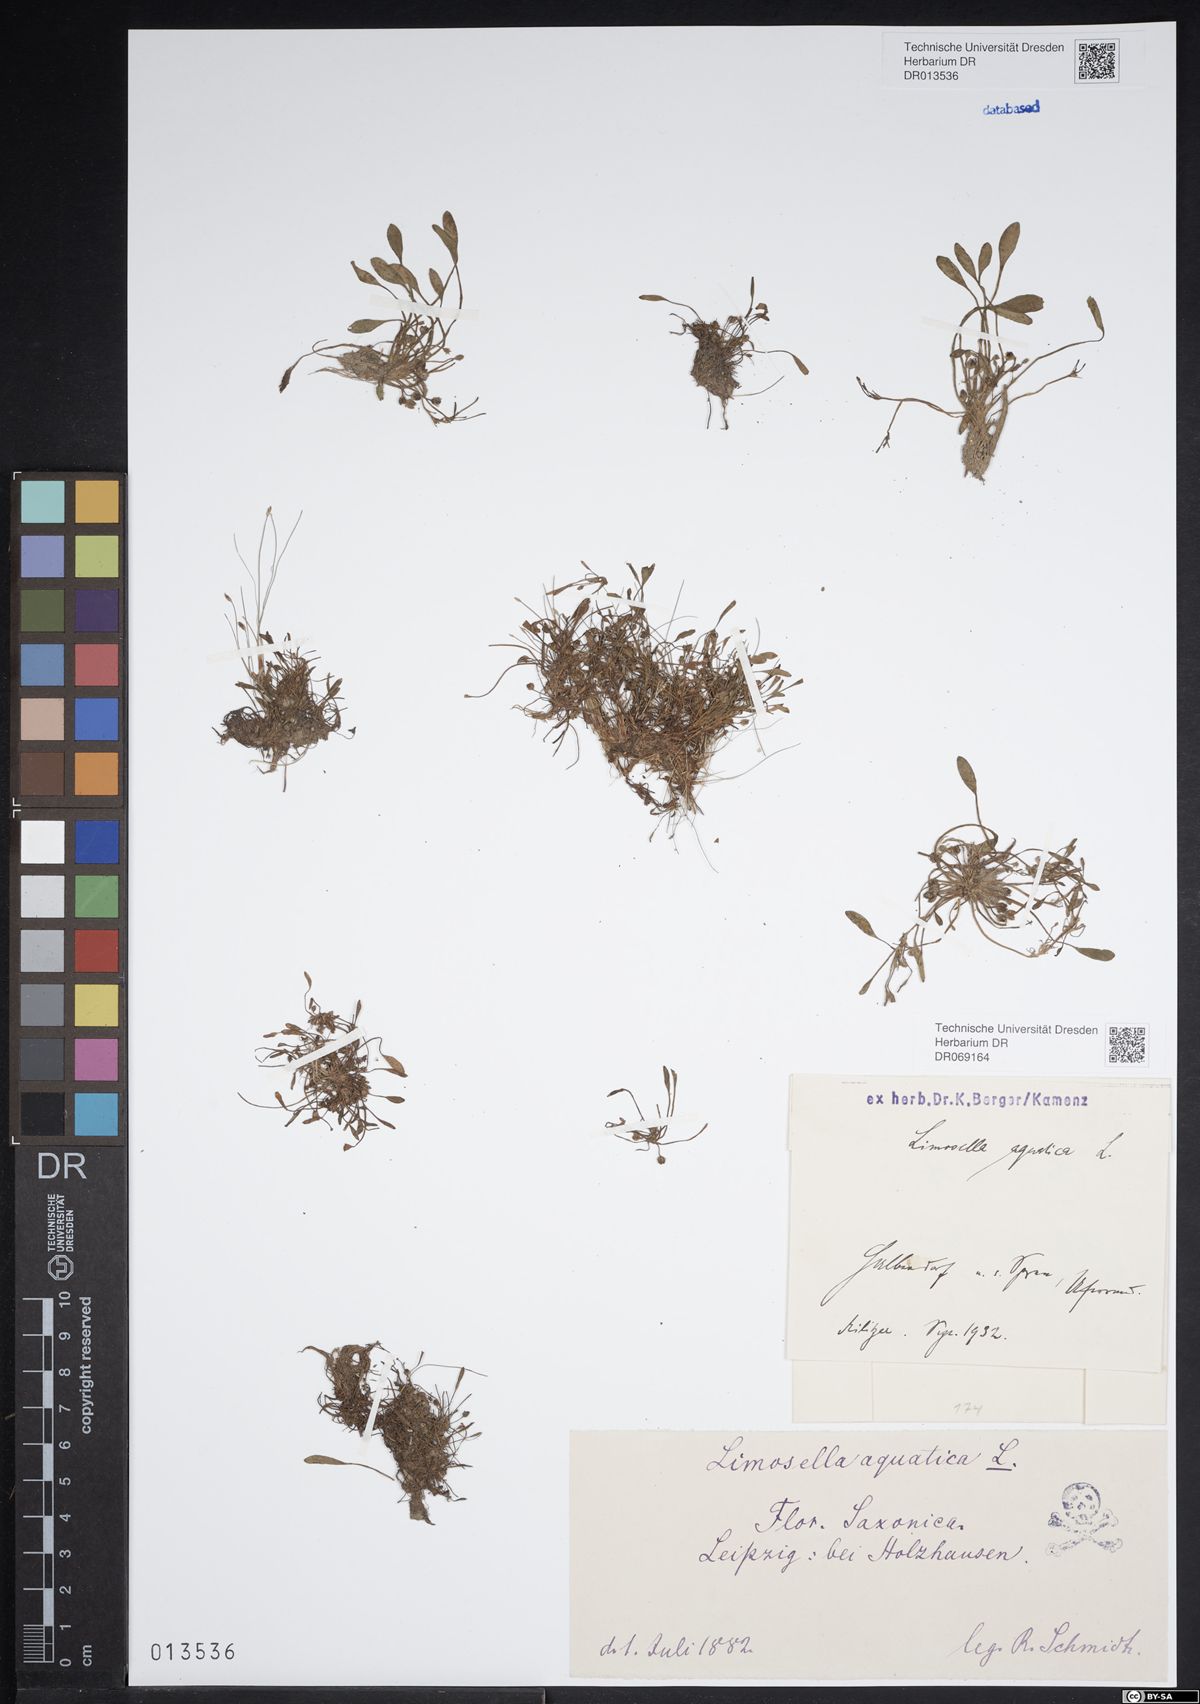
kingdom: Plantae
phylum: Tracheophyta
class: Magnoliopsida
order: Lamiales
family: Scrophulariaceae
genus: Limosella
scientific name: Limosella aquatica
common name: Mudwort
